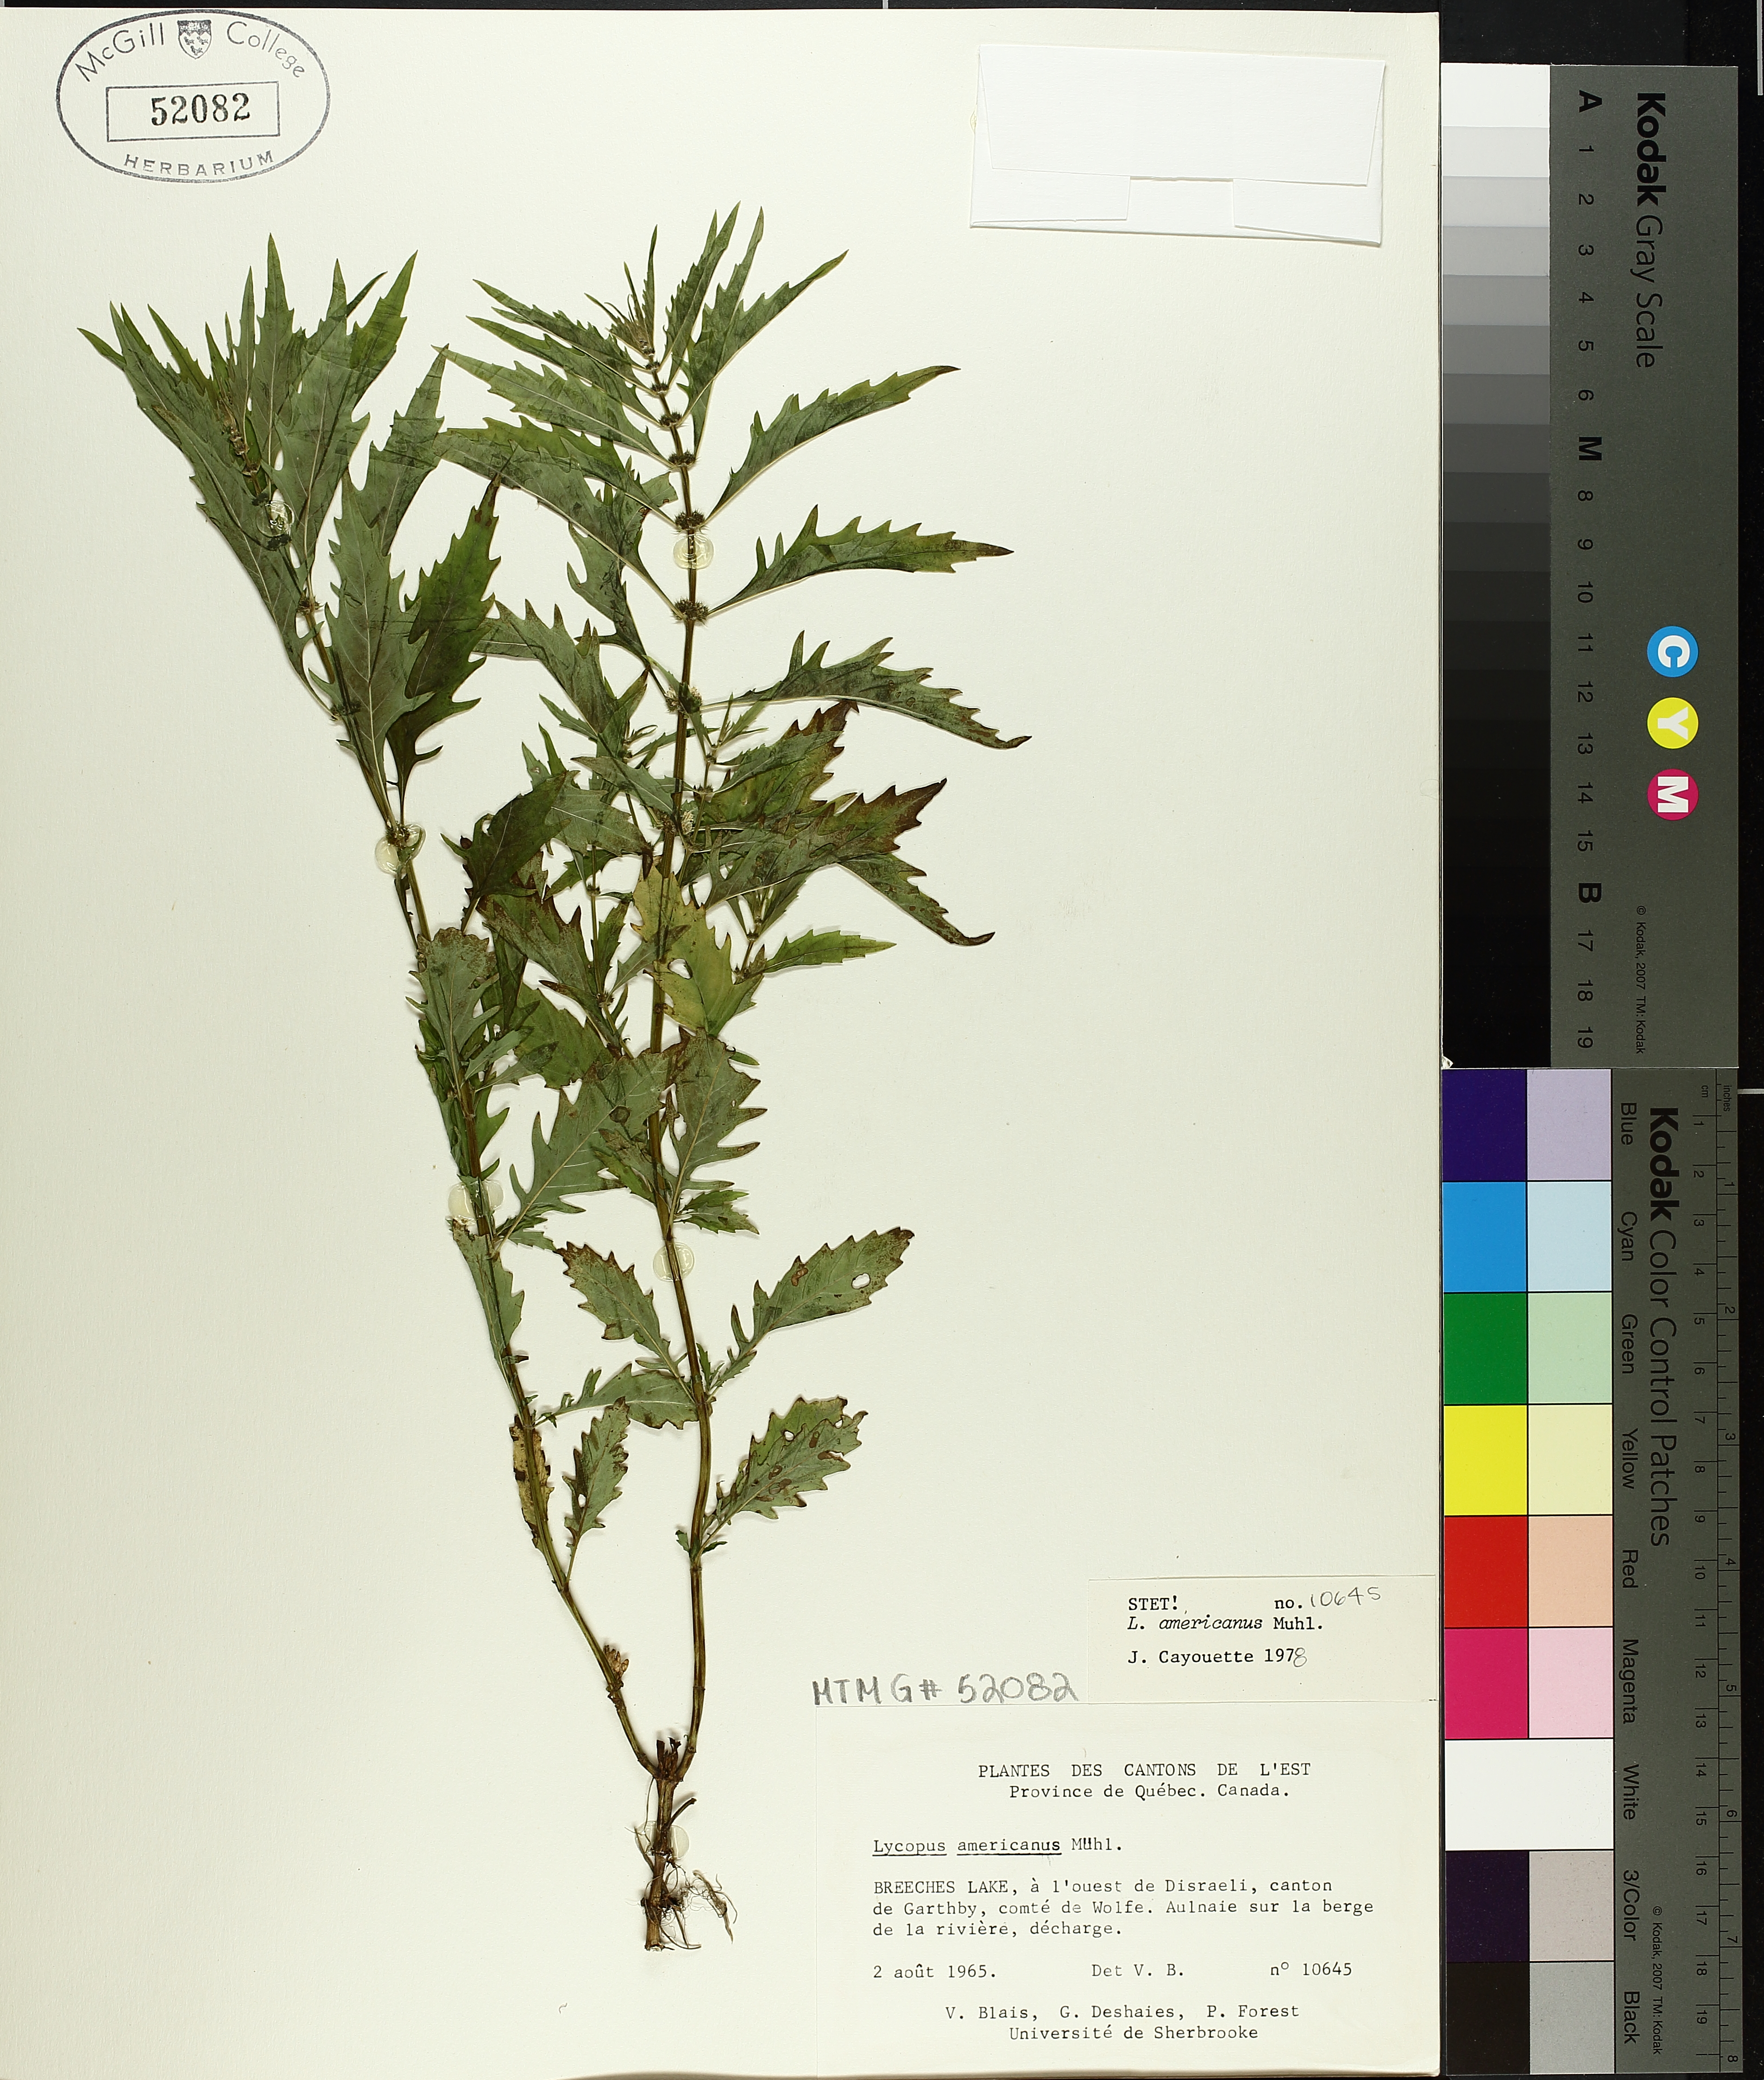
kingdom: Plantae
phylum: Tracheophyta
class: Magnoliopsida
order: Lamiales
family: Lamiaceae
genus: Lycopus
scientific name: Lycopus americanus
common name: American bugleweed
